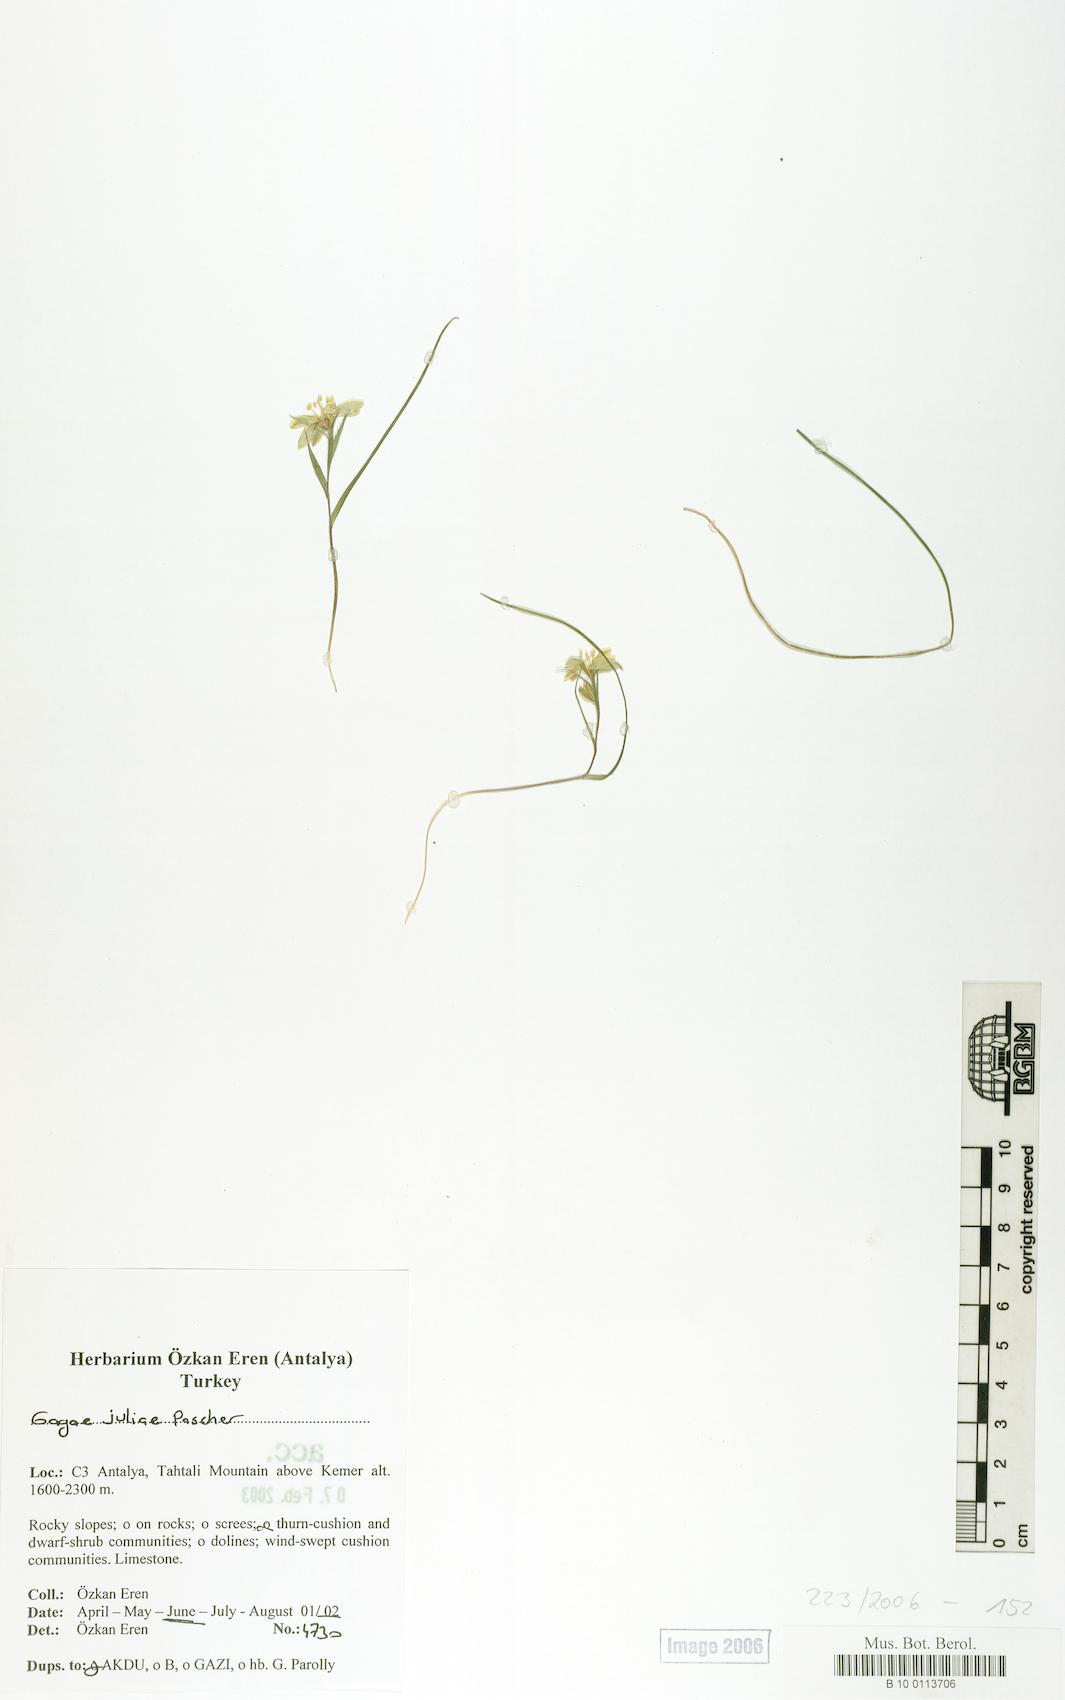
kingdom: Plantae
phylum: Tracheophyta
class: Liliopsida
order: Liliales
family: Liliaceae
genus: Gagea
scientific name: Gagea juliae
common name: Julia’s gagea
